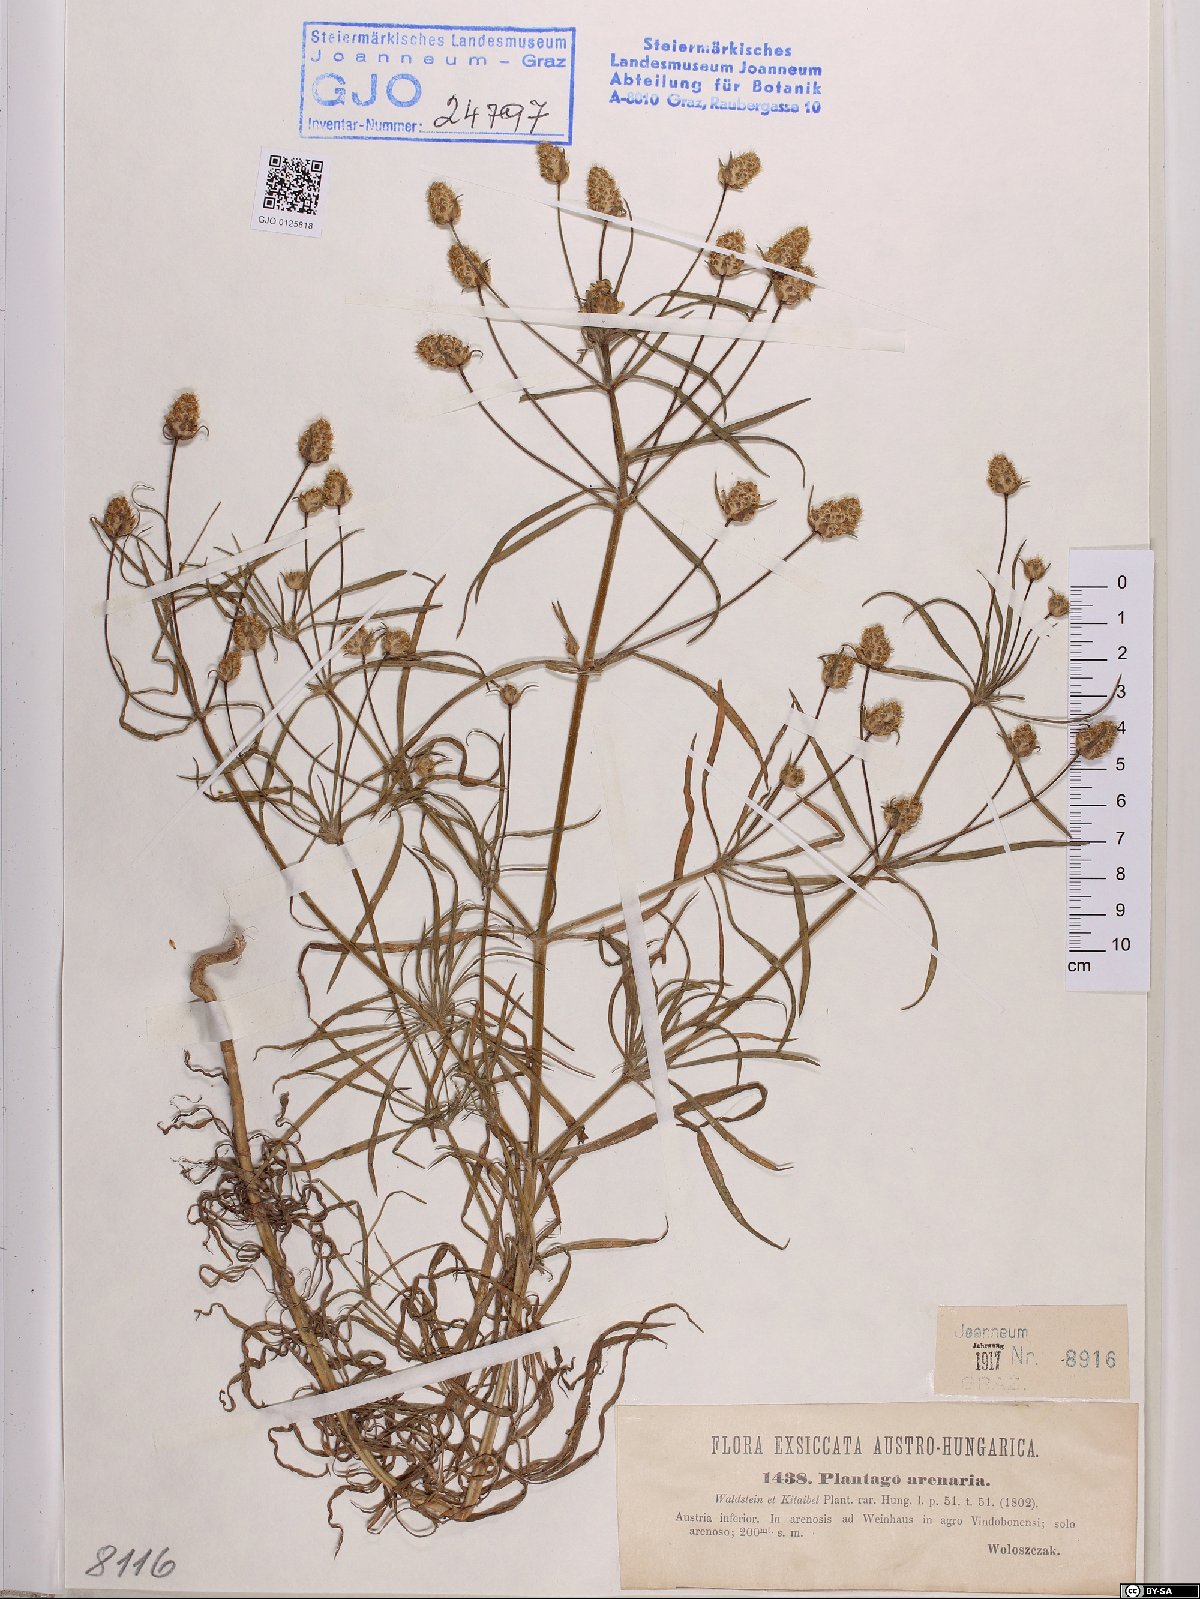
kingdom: Plantae
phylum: Tracheophyta
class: Magnoliopsida
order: Lamiales
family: Plantaginaceae
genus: Plantago
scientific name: Plantago arenaria
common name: Branched plantain
